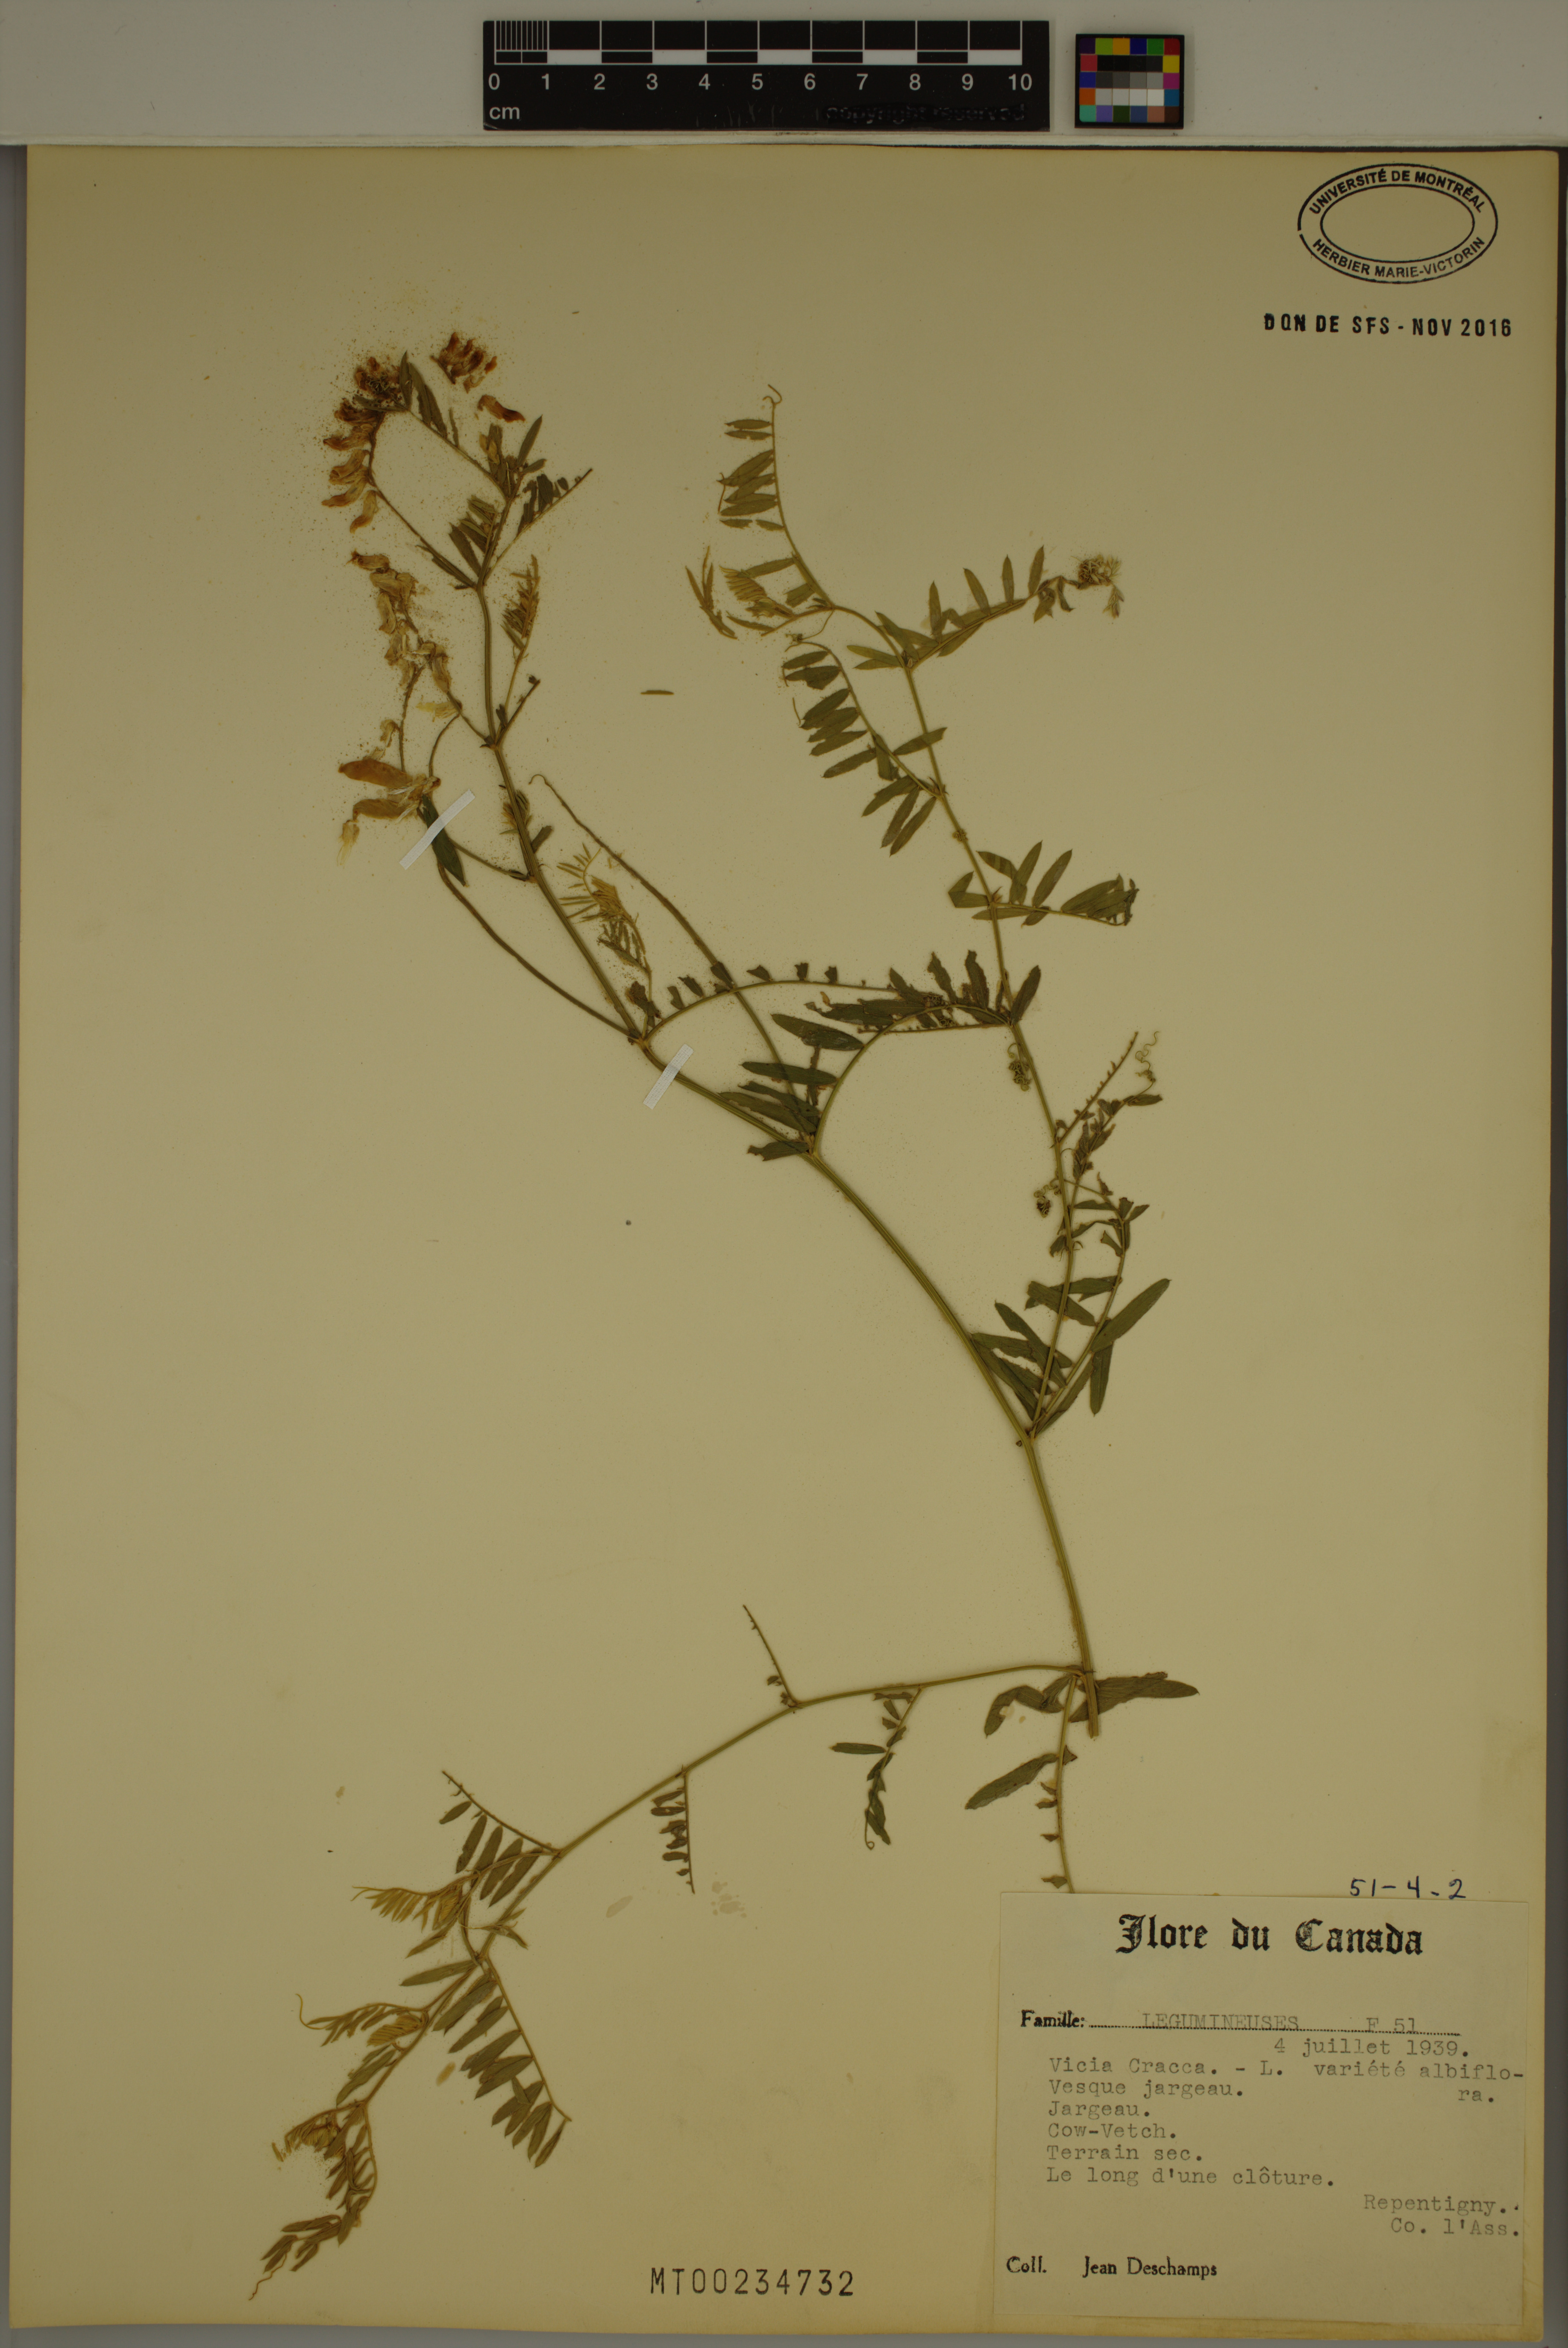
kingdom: Plantae
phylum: Tracheophyta
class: Magnoliopsida
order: Fabales
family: Fabaceae
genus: Vicia
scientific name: Vicia cracca
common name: Bird vetch
